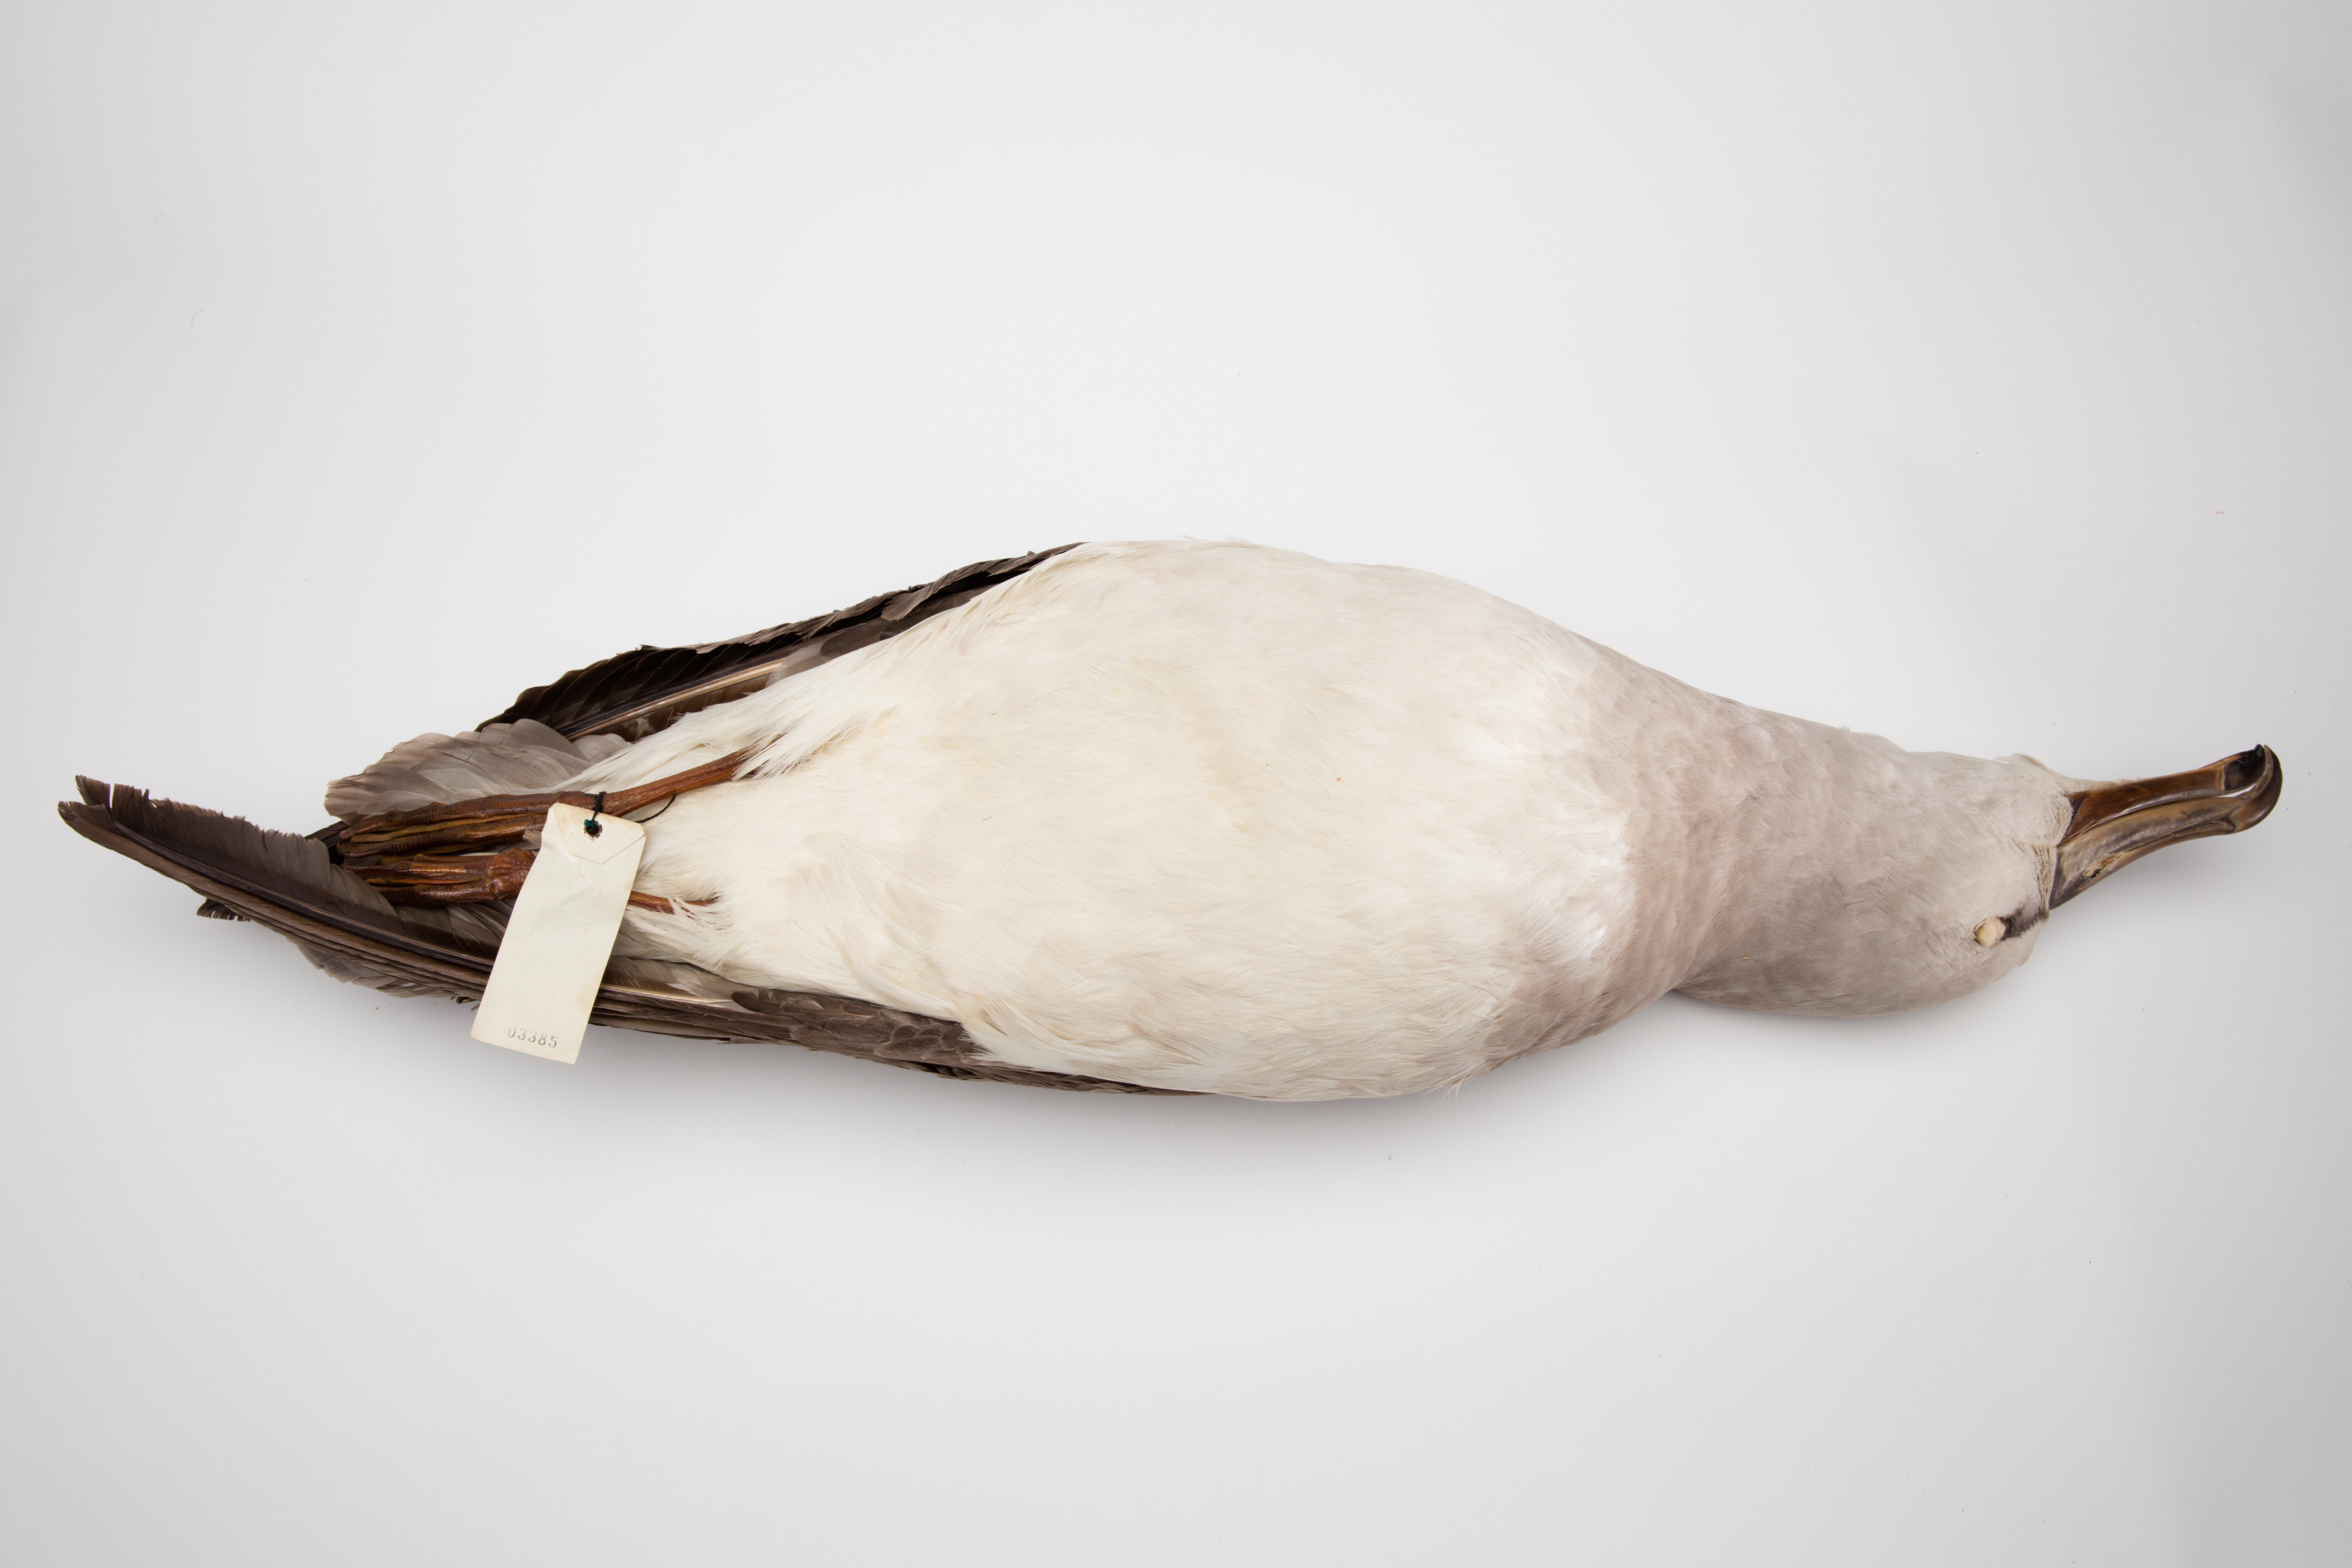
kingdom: Animalia
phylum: Chordata
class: Aves
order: Procellariiformes
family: Diomedeidae
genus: Thalassarche
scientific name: Thalassarche eremita
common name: Chatham albatross
